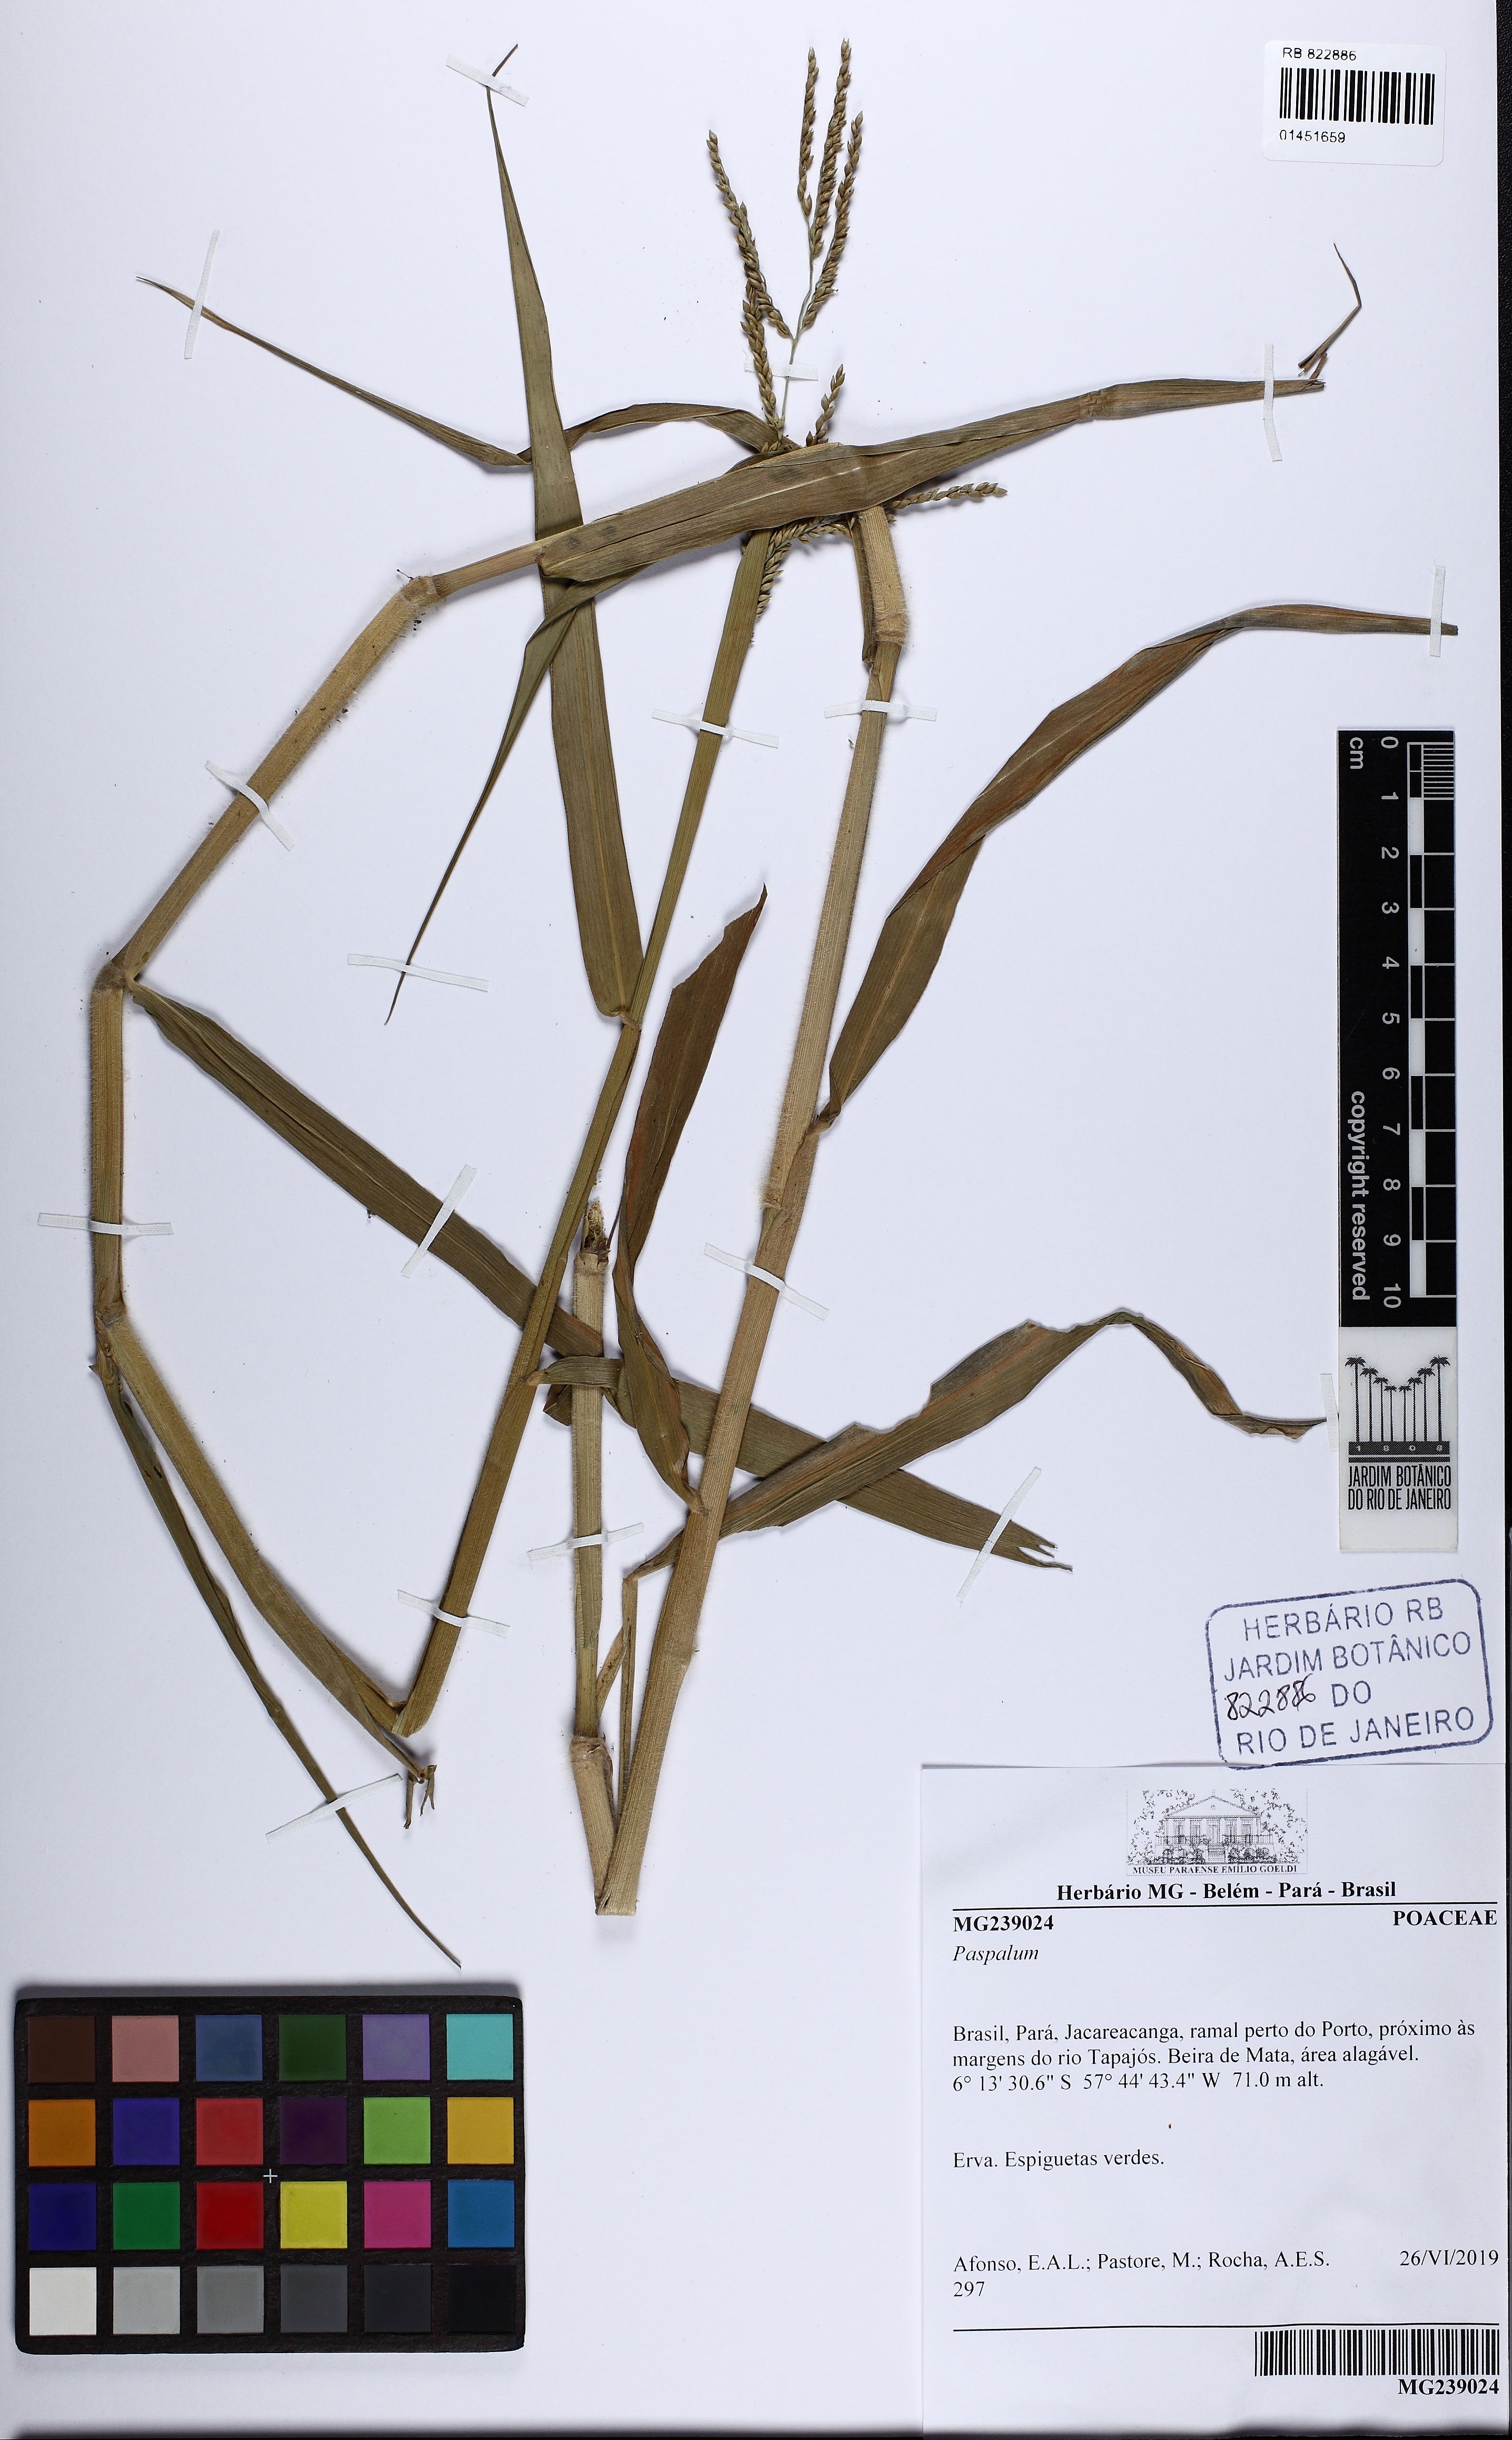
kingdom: Plantae
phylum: Tracheophyta
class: Liliopsida
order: Poales
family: Poaceae
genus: Paspalum
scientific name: Paspalum
